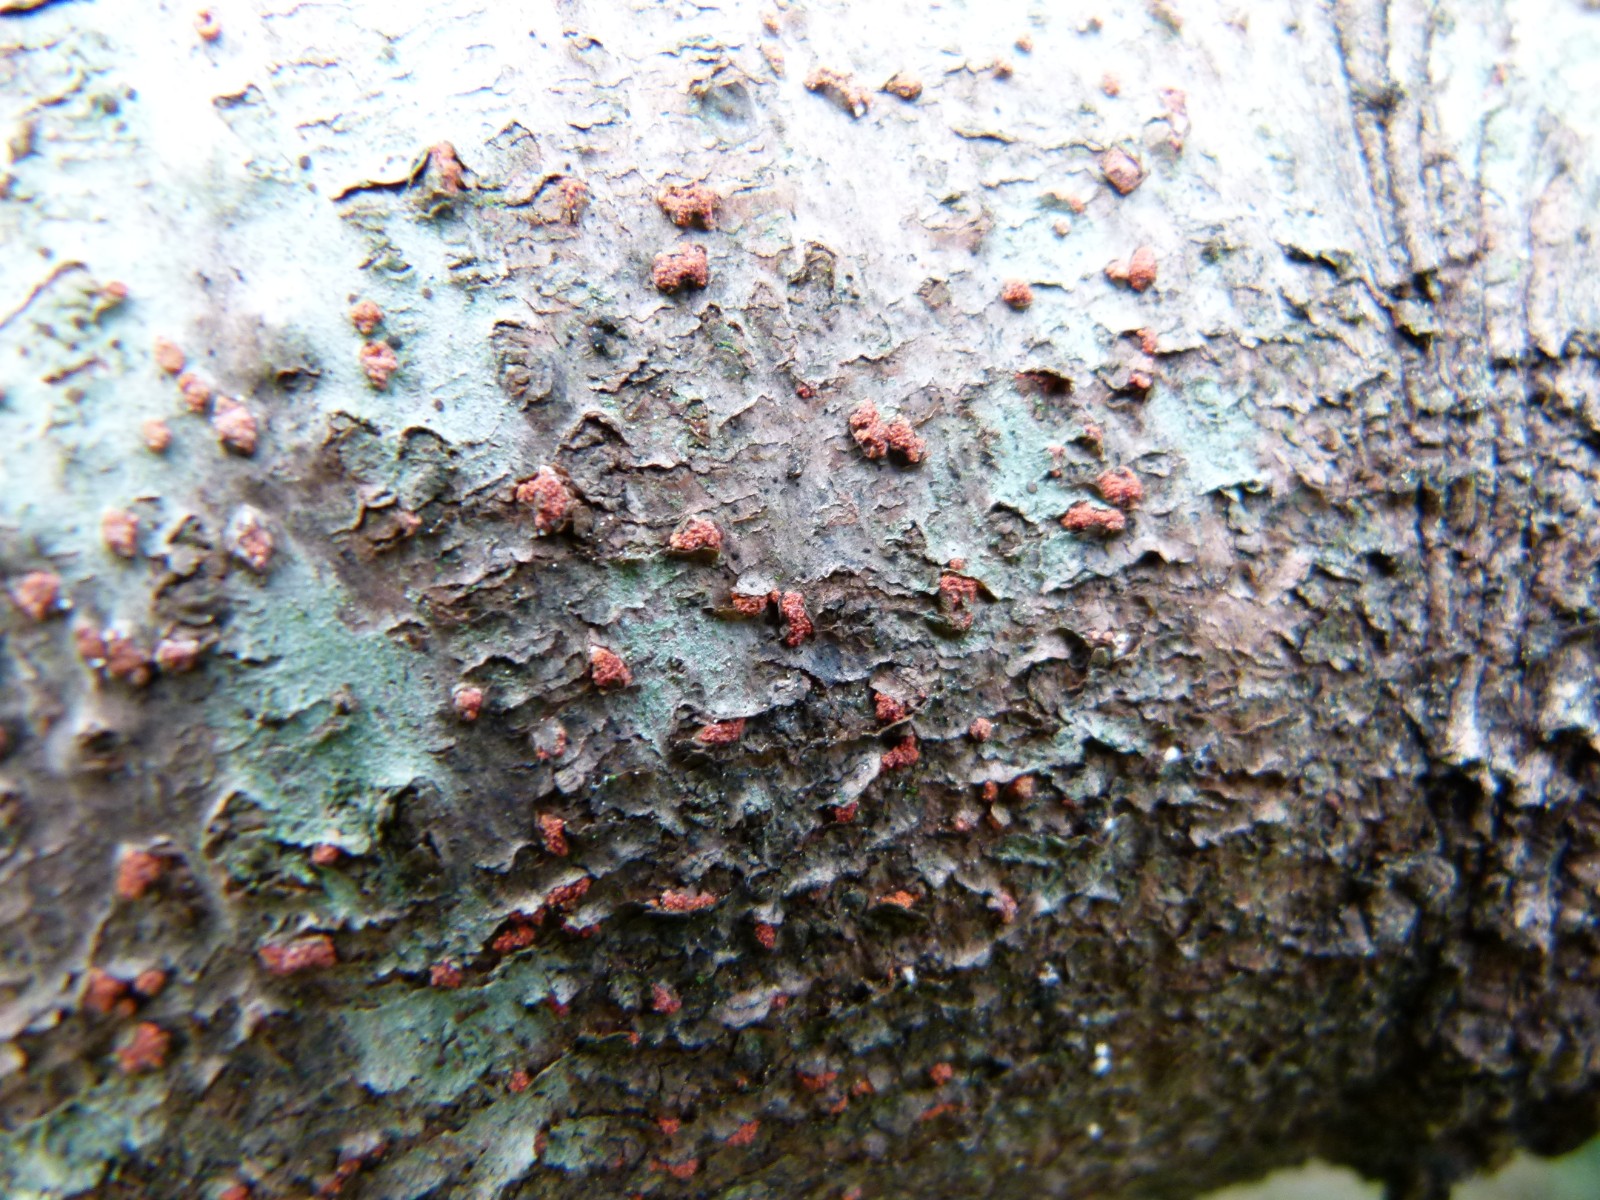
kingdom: Fungi
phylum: Ascomycota
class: Sordariomycetes
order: Hypocreales
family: Nectriaceae
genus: Neonectria
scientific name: Neonectria neomacrospora
